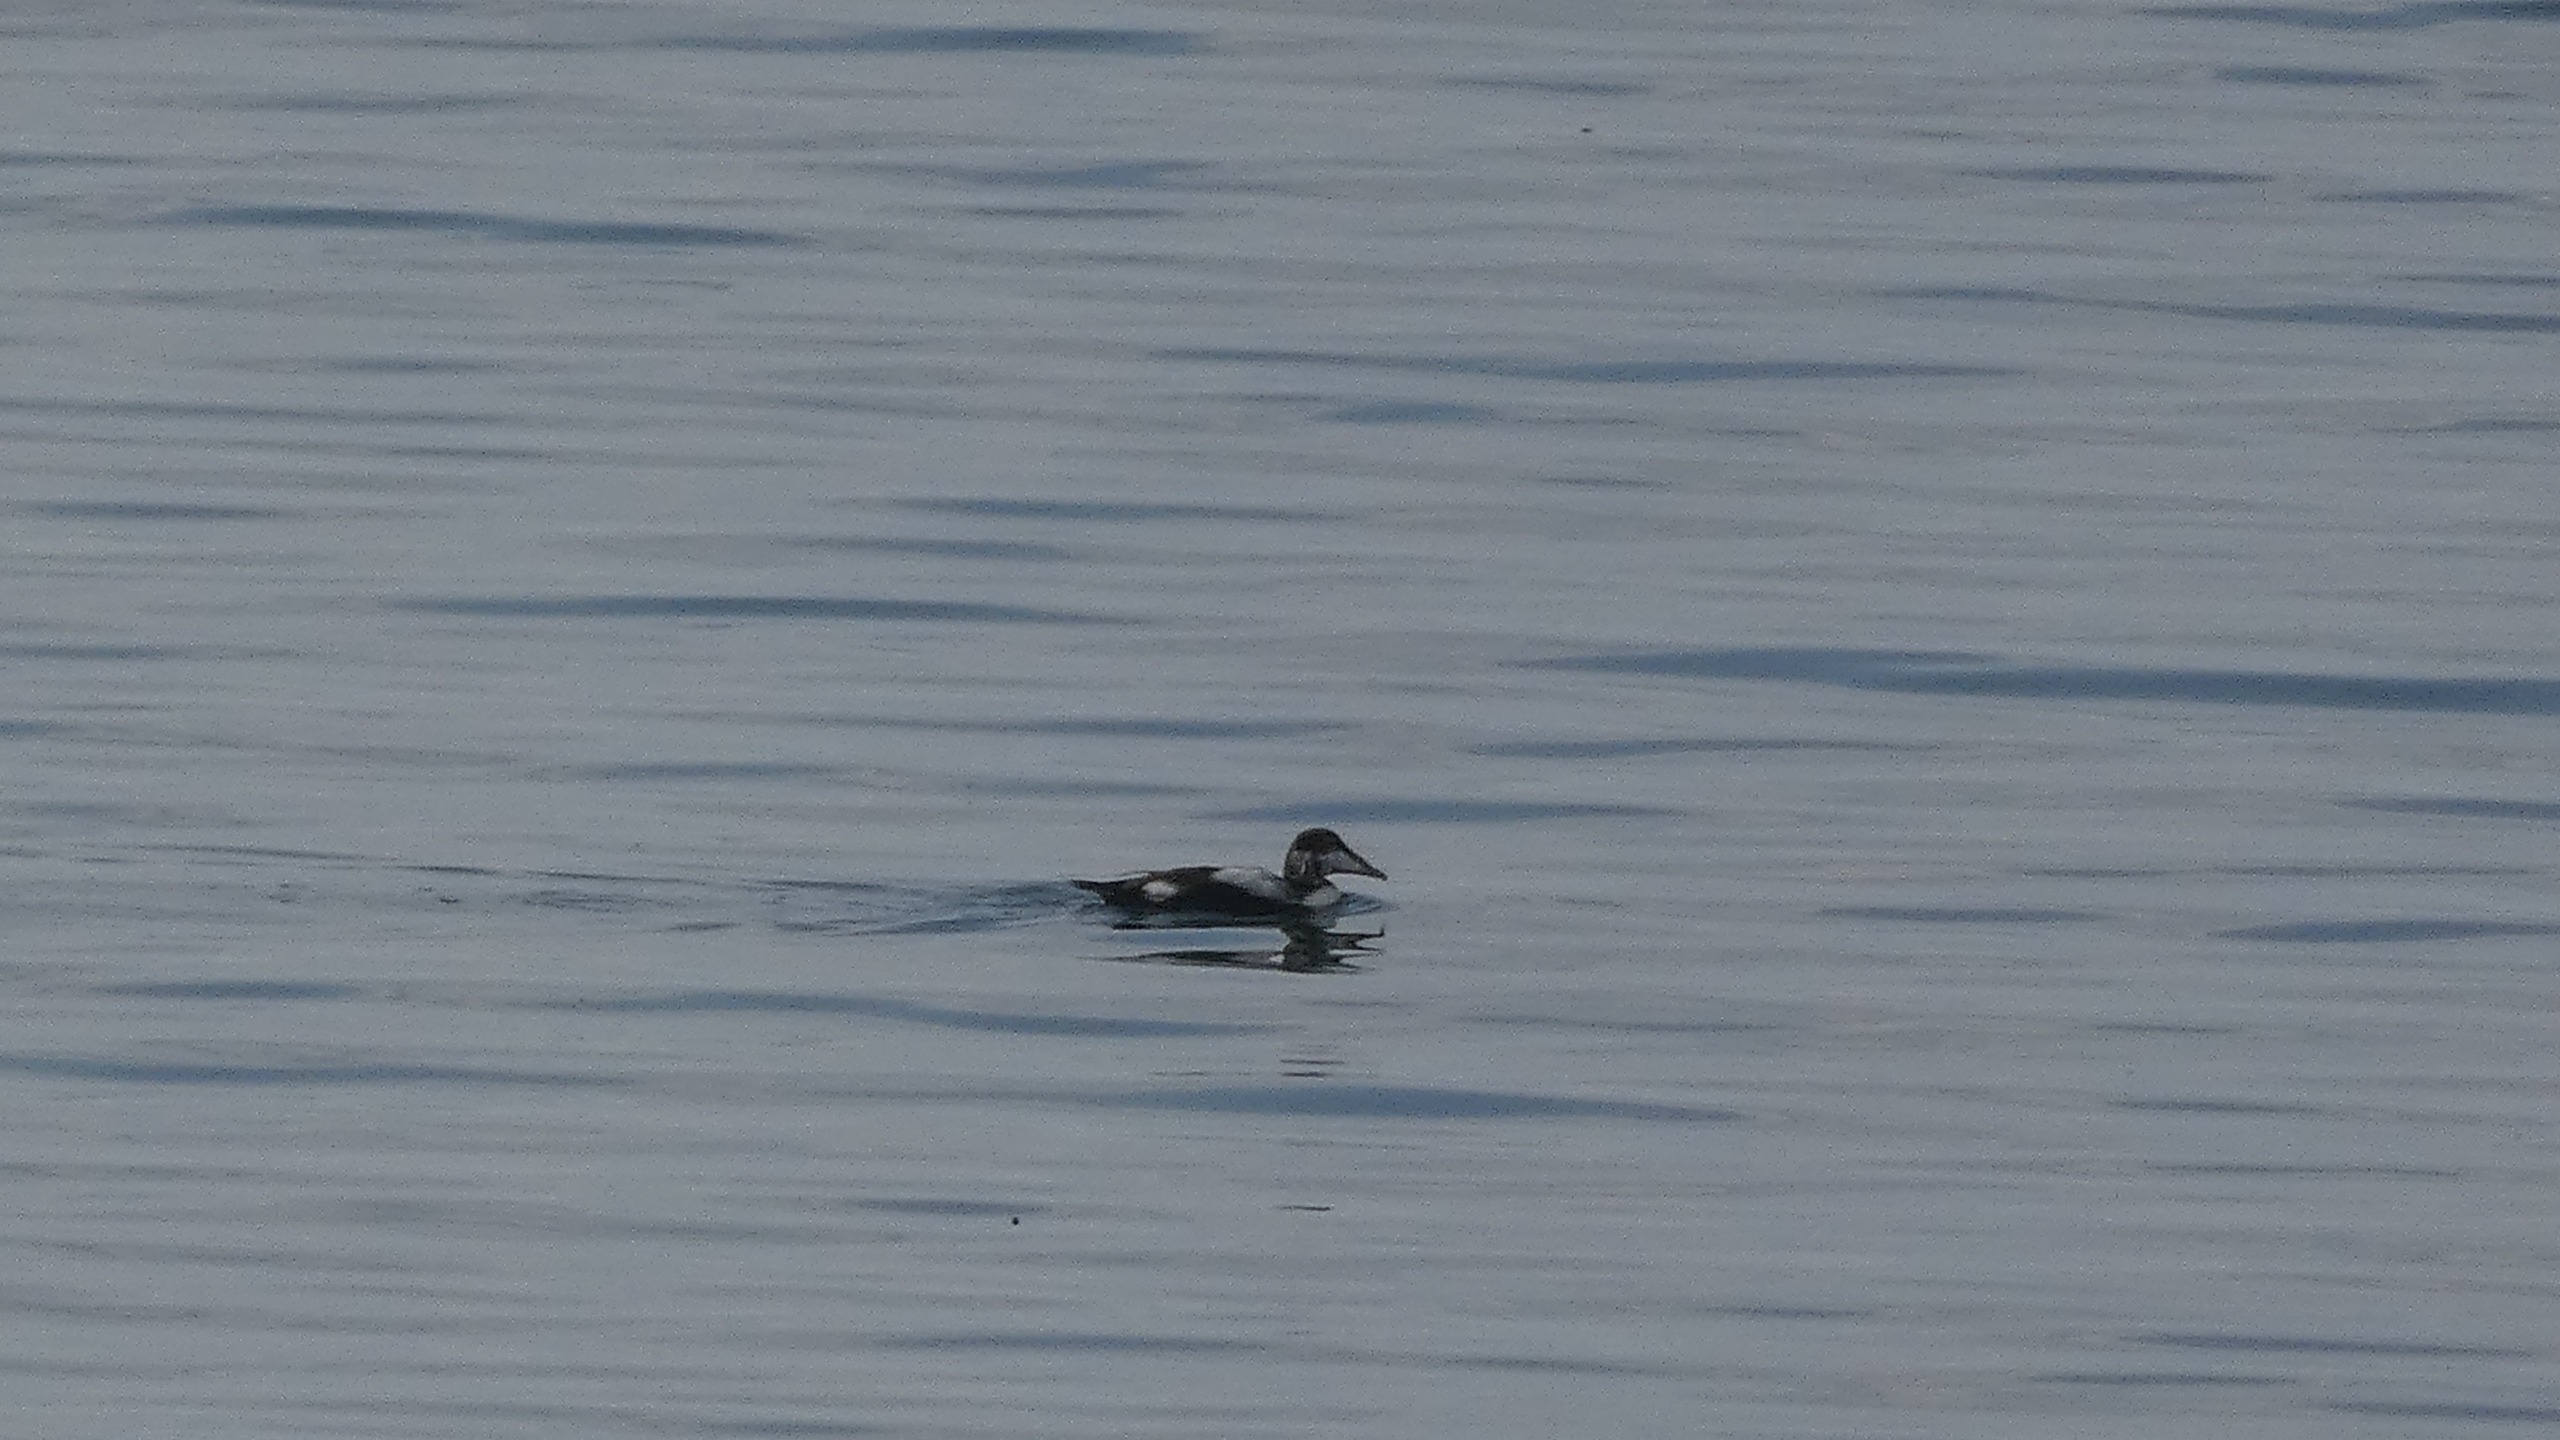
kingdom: Animalia
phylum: Chordata
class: Aves
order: Anseriformes
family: Anatidae
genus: Somateria
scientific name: Somateria mollissima
